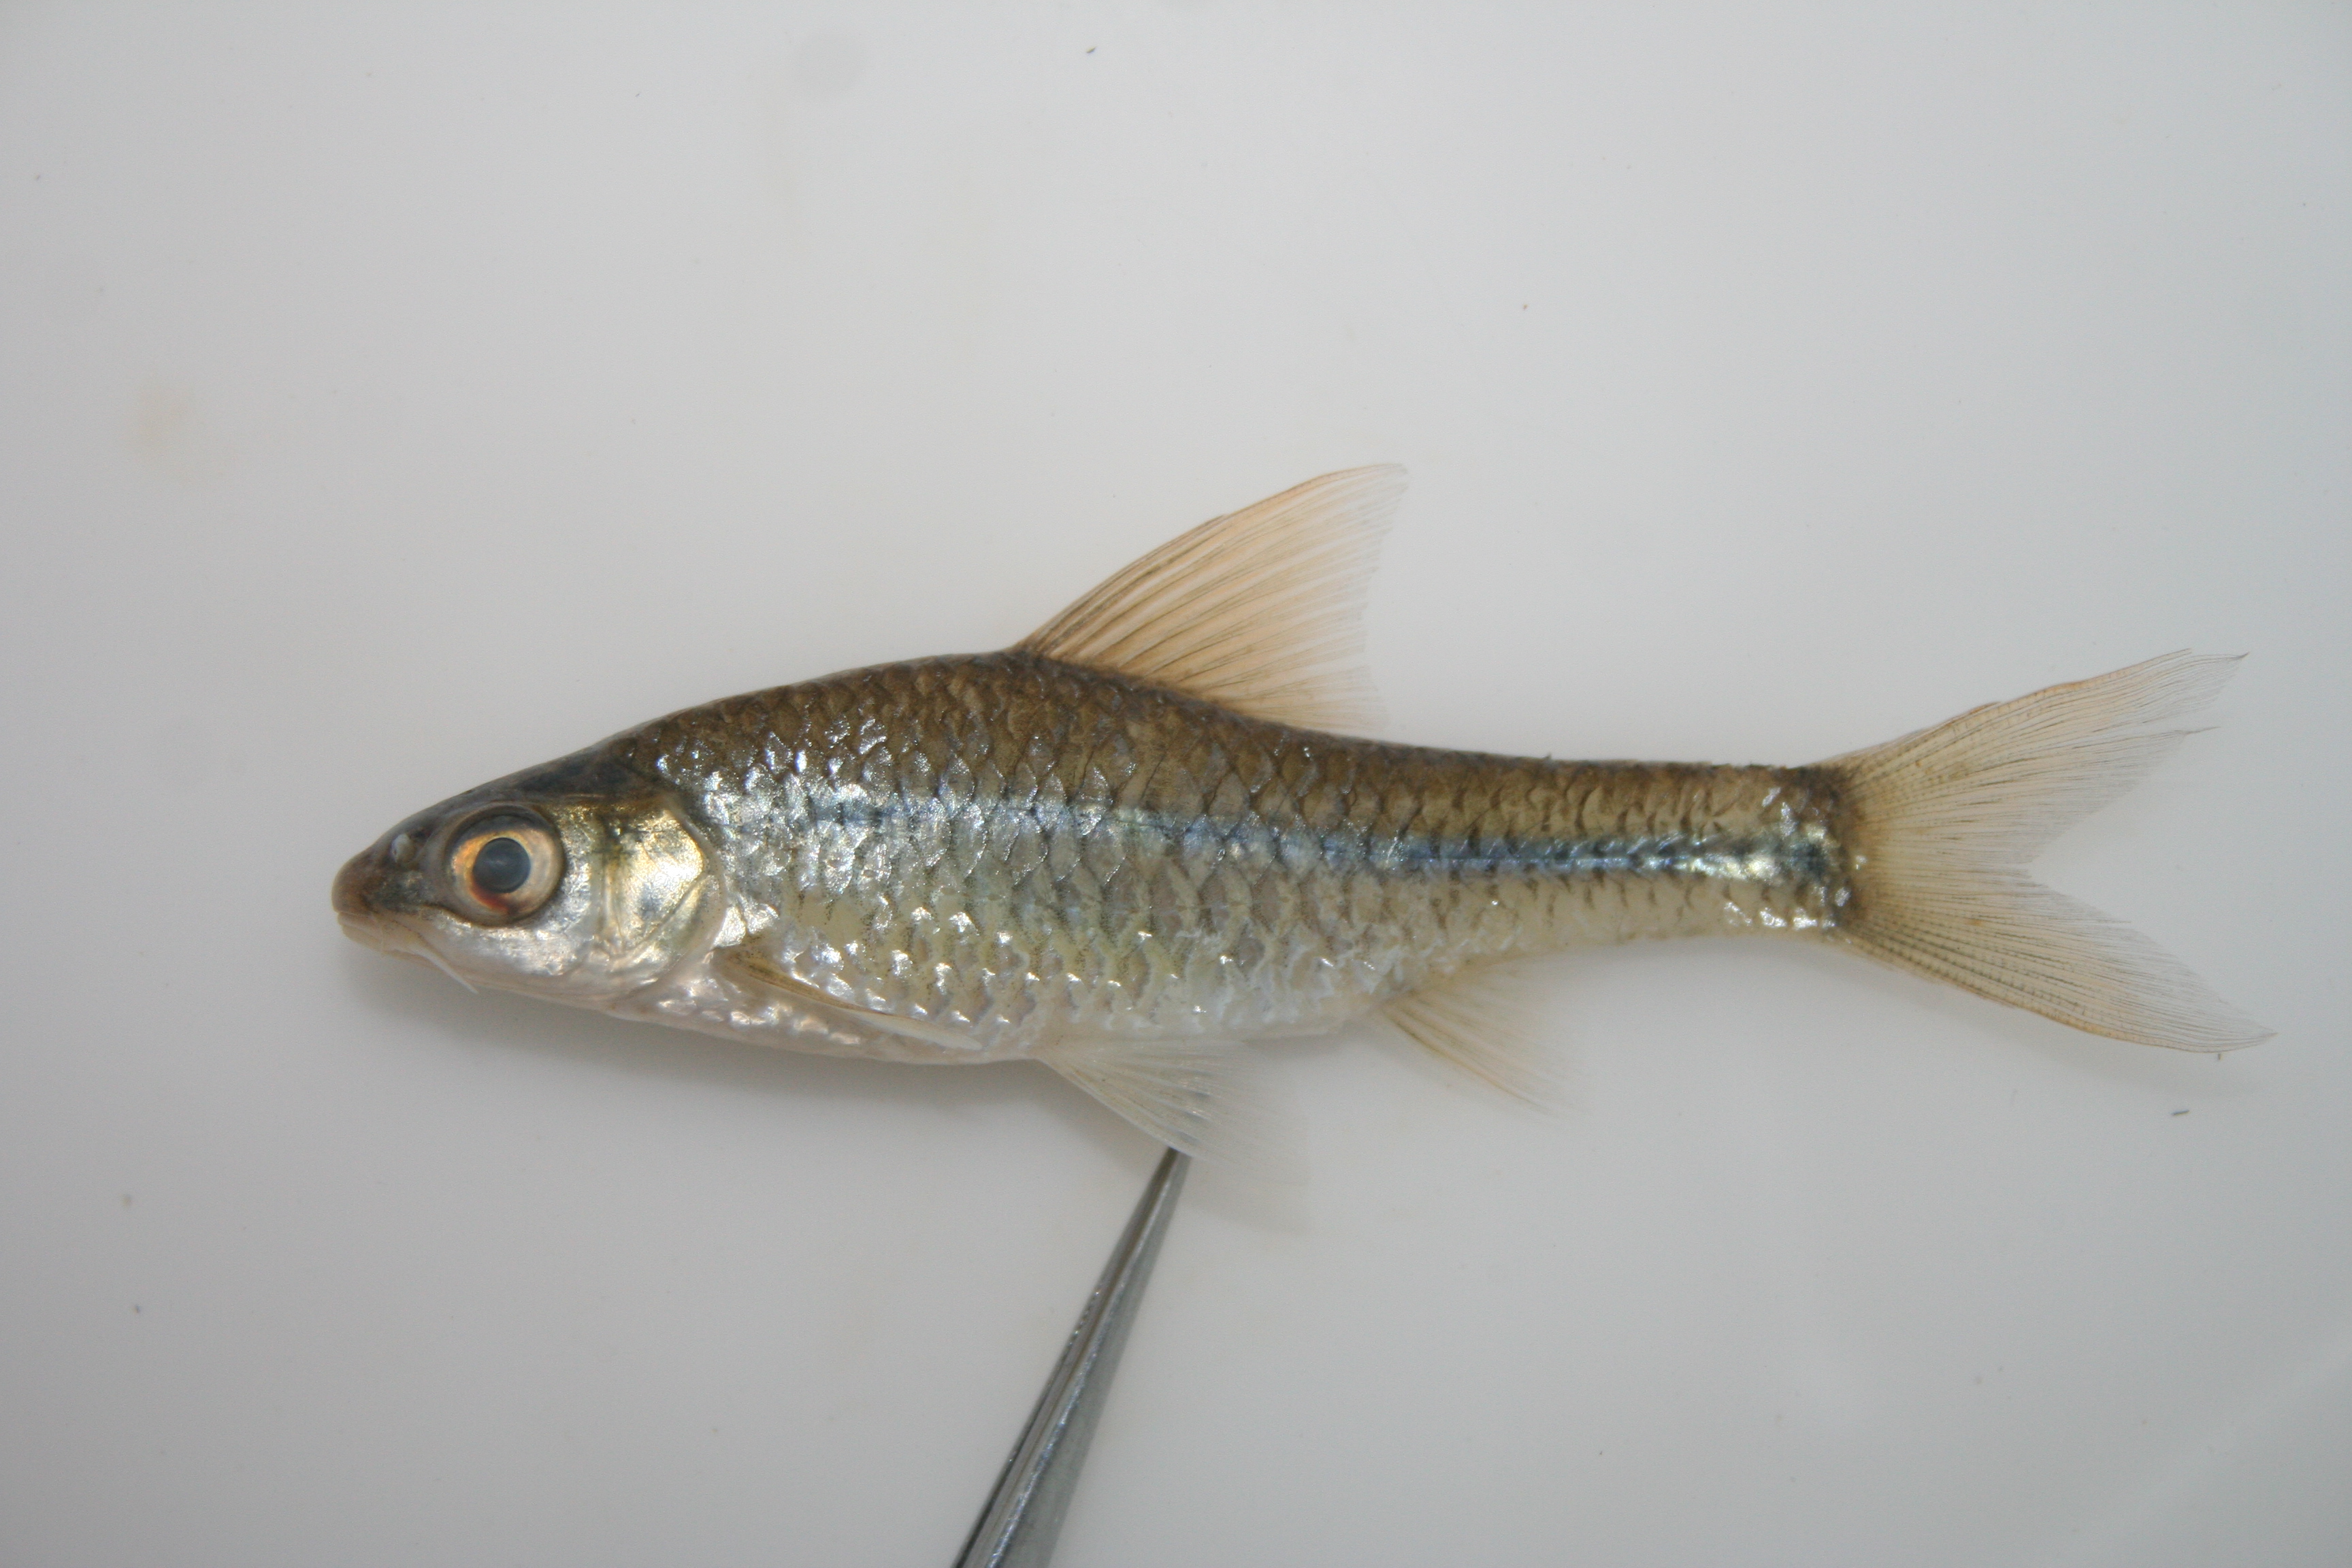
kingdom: Animalia
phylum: Chordata
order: Cypriniformes
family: Cyprinidae
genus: Barbus
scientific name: Barbus
